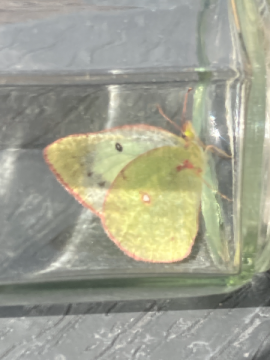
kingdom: Animalia
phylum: Arthropoda
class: Insecta
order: Lepidoptera
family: Pieridae
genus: Colias
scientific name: Colias philodice
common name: Clouded Sulphur
